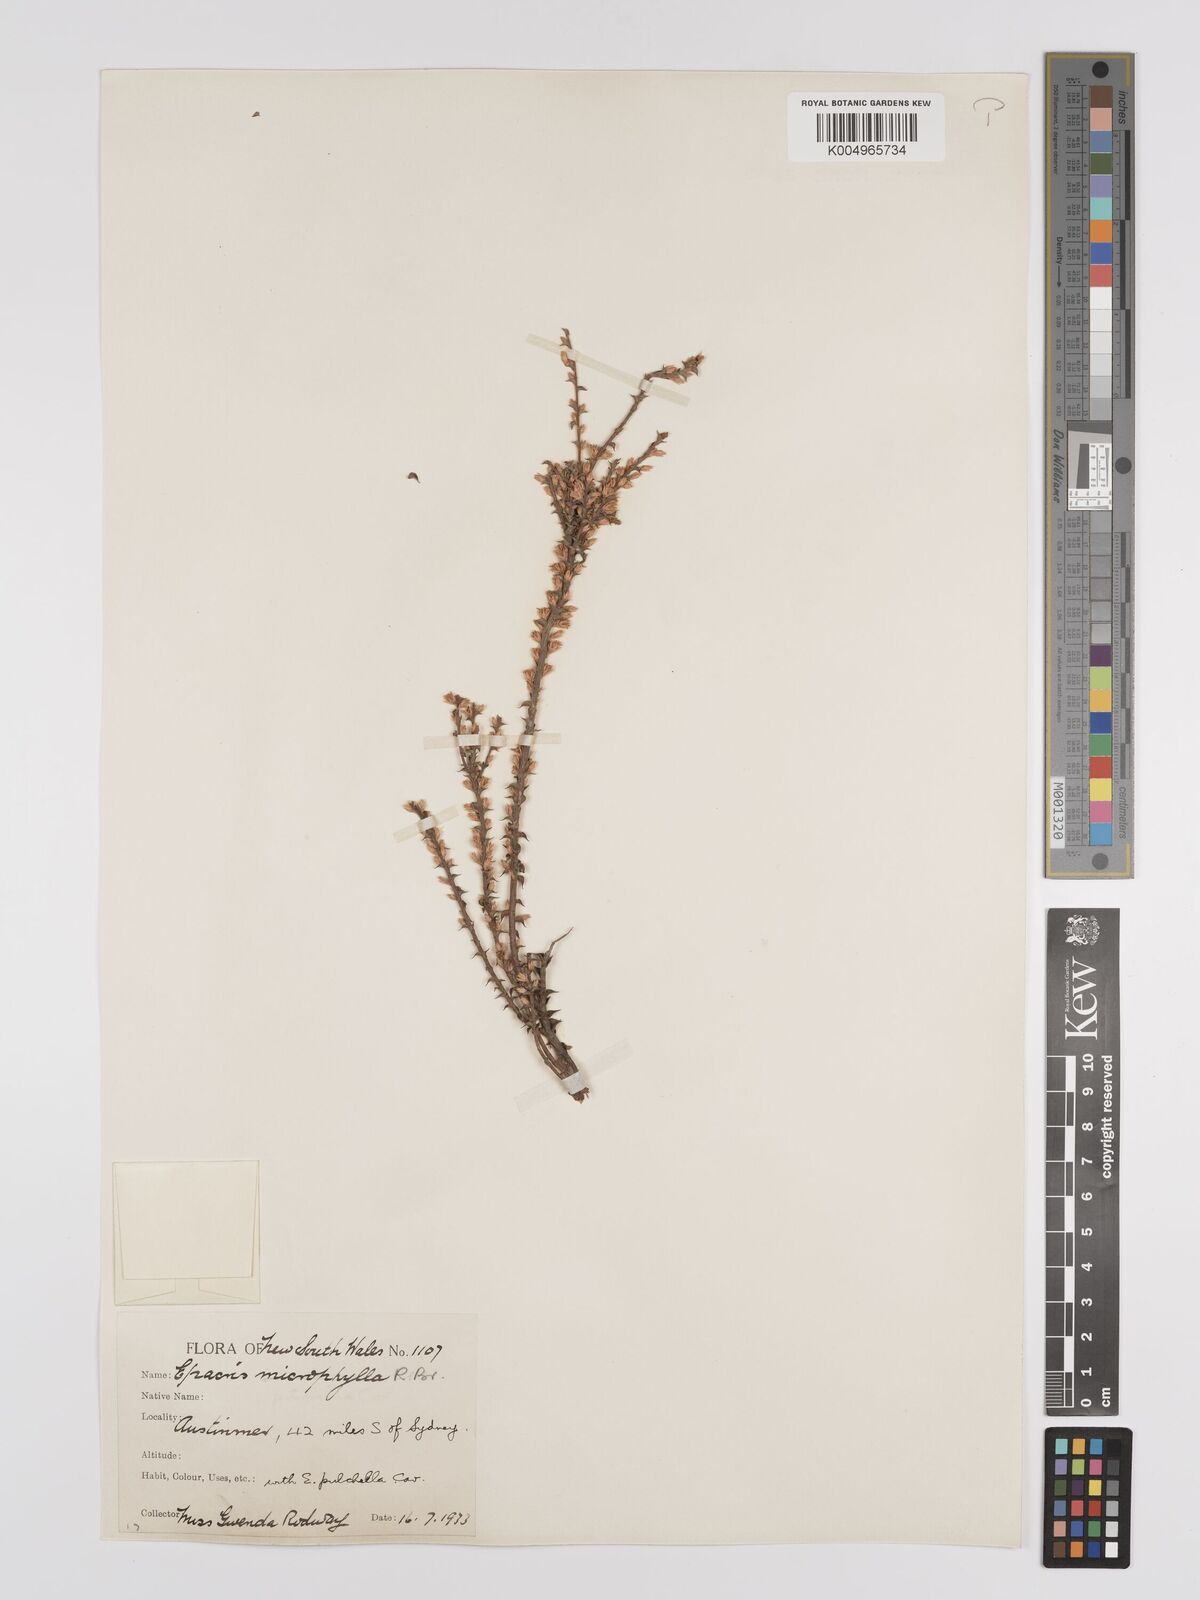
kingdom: Plantae
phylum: Tracheophyta
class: Magnoliopsida
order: Ericales
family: Ericaceae
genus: Epacris
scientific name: Epacris
